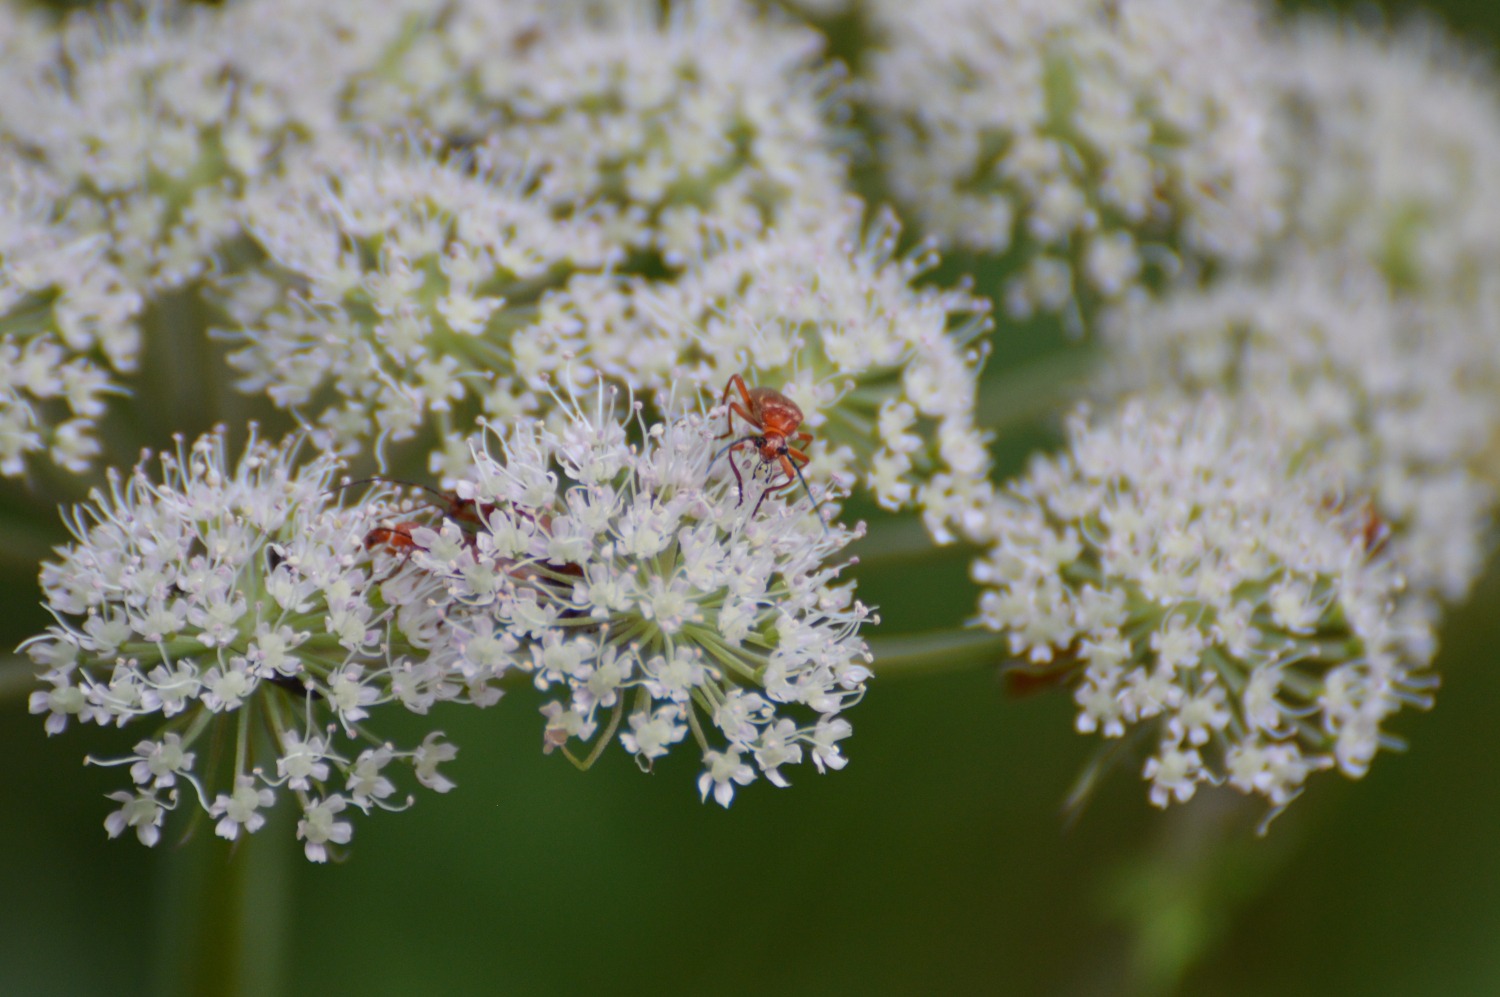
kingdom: Animalia
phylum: Arthropoda
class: Insecta
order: Coleoptera
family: Cantharidae
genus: Rhagonycha
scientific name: Rhagonycha fulva
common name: Præstebille
